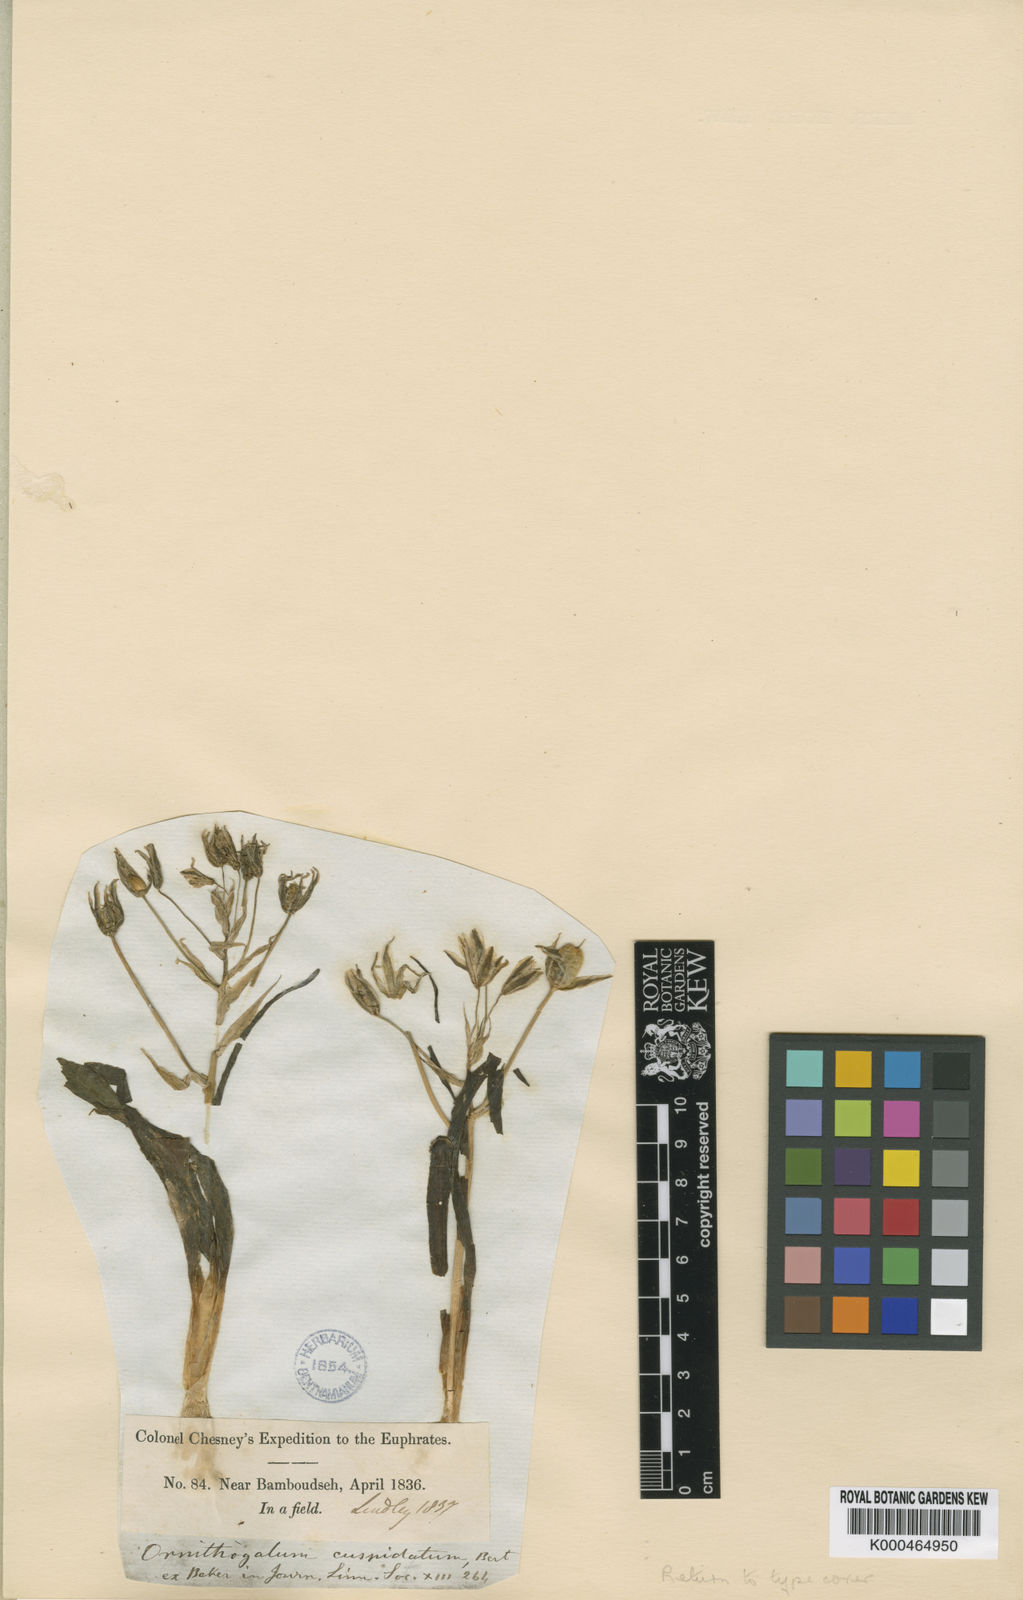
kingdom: Plantae
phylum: Tracheophyta
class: Liliopsida
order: Asparagales
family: Asparagaceae
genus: Ornithogalum
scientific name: Ornithogalum
